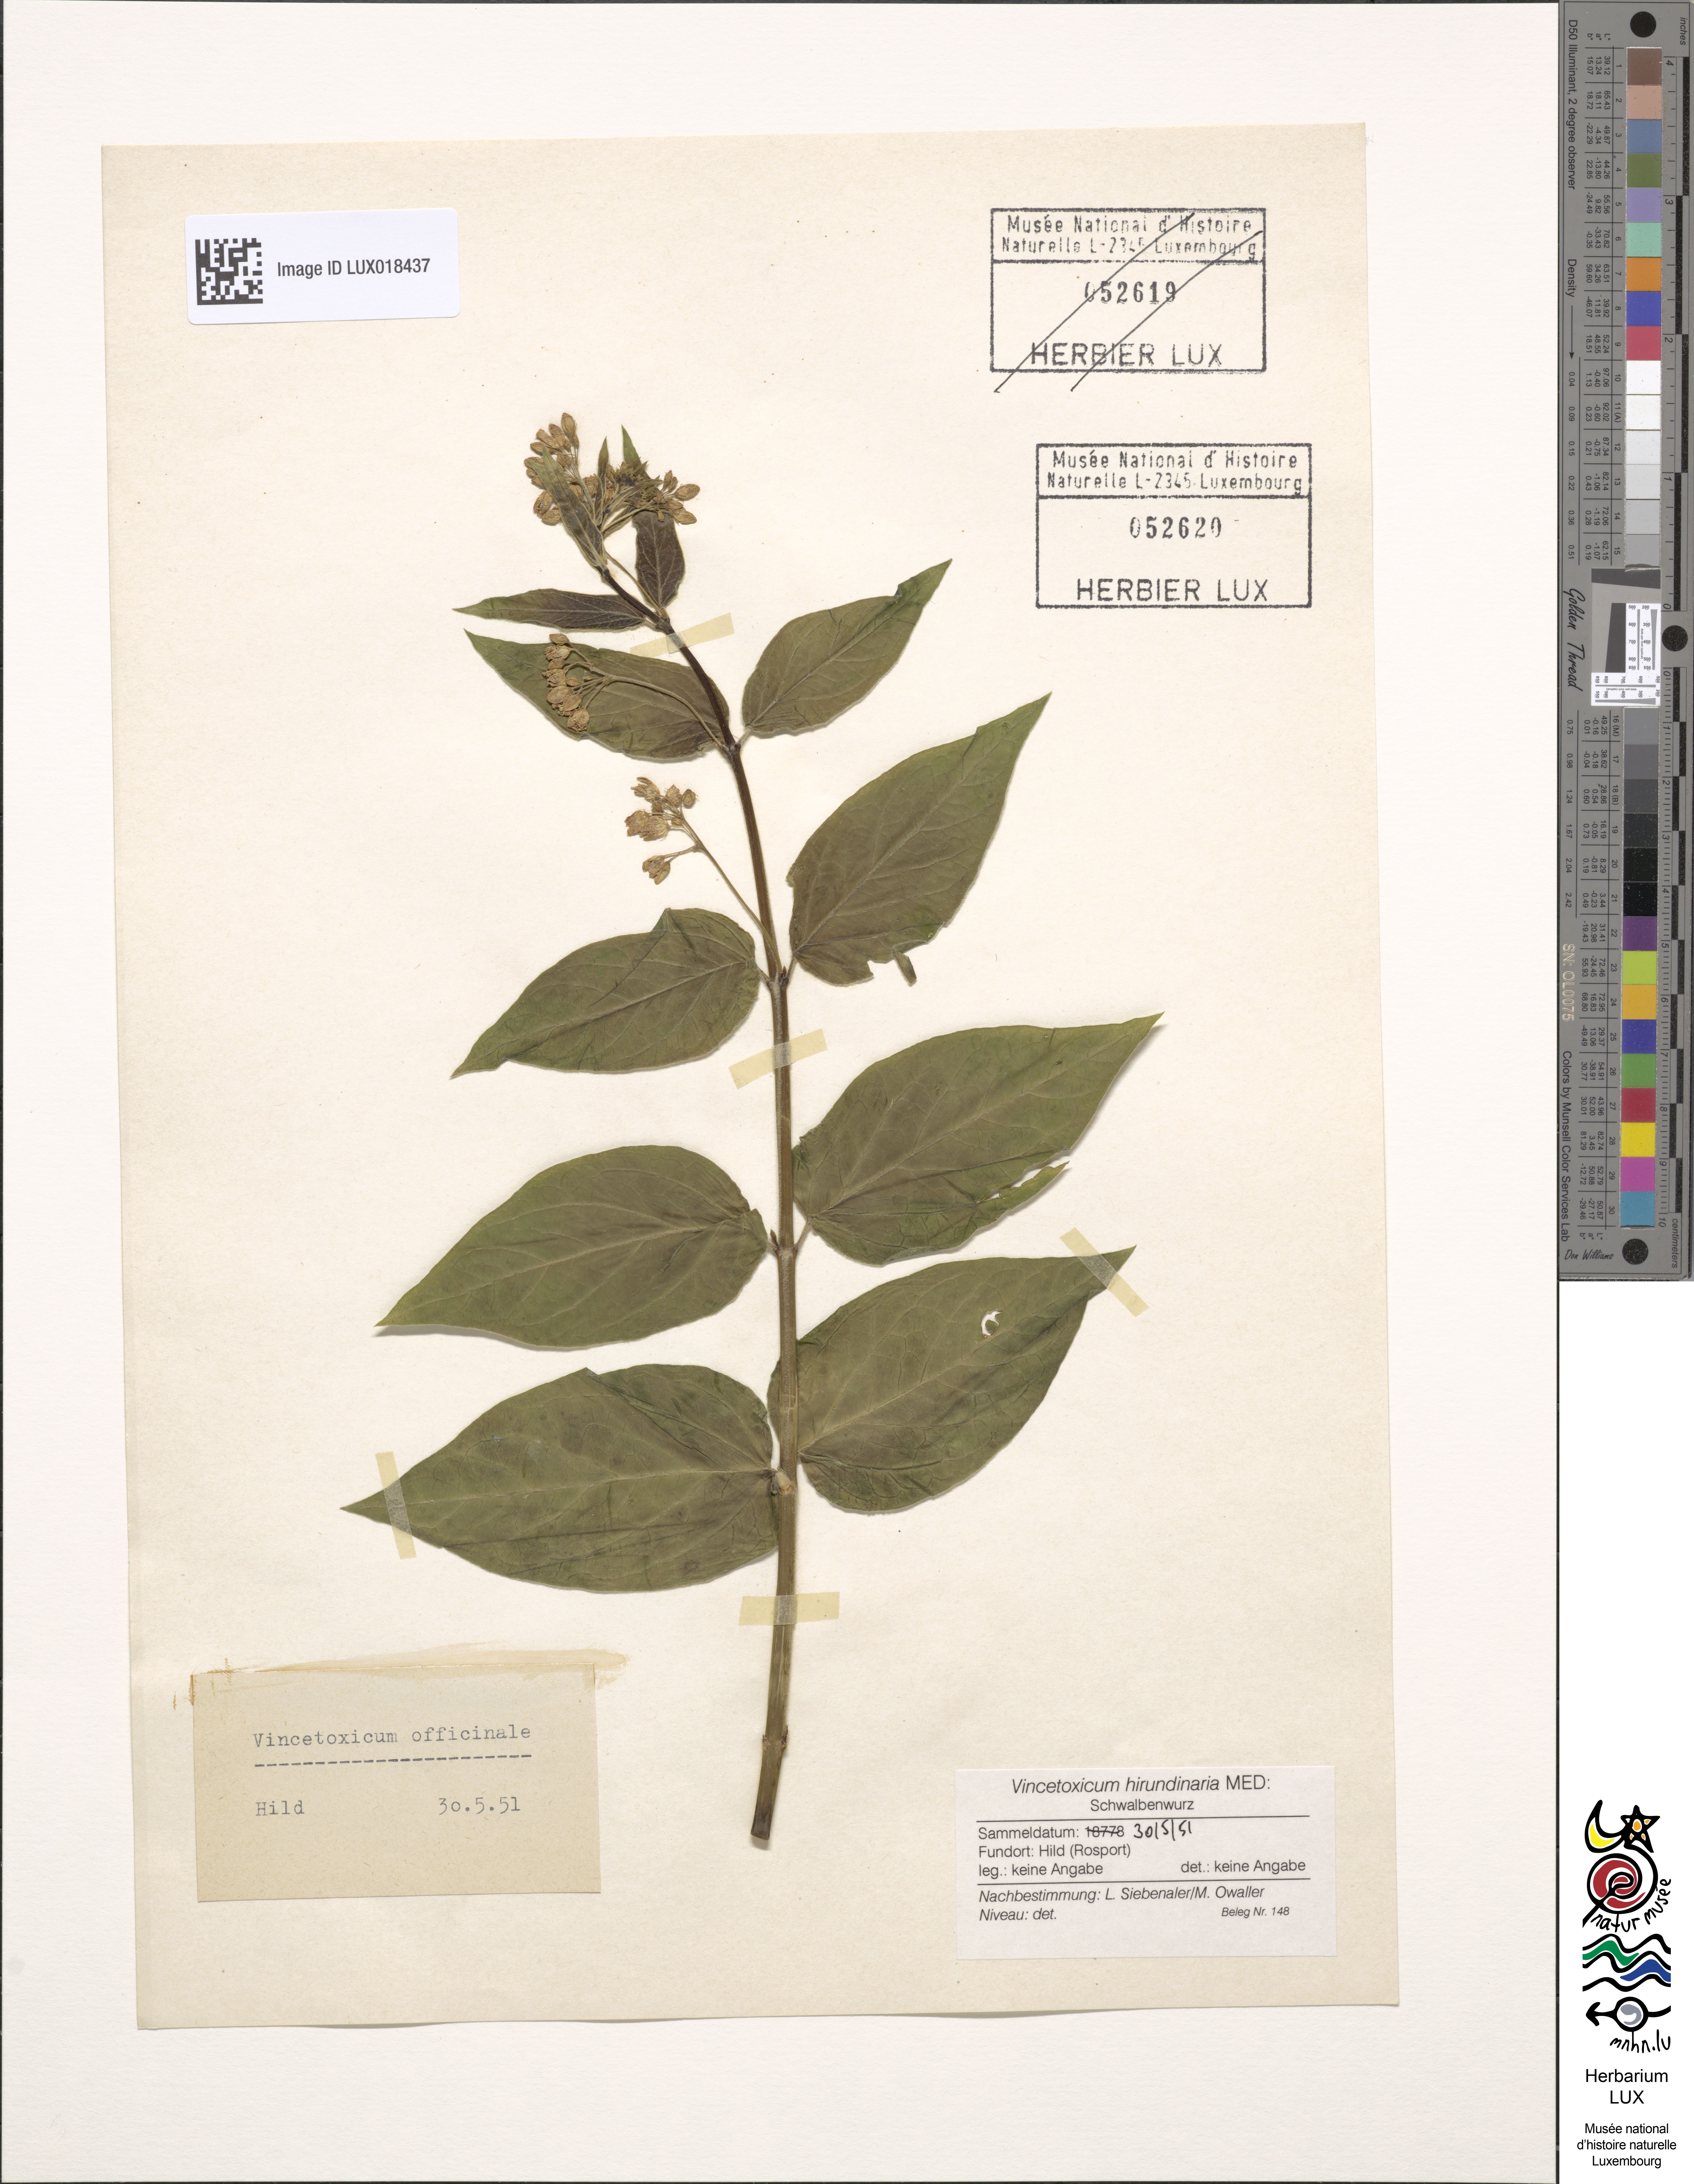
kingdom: Plantae
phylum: Tracheophyta
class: Magnoliopsida
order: Gentianales
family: Apocynaceae
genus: Vincetoxicum
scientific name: Vincetoxicum hirundinaria
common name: White swallowwort
